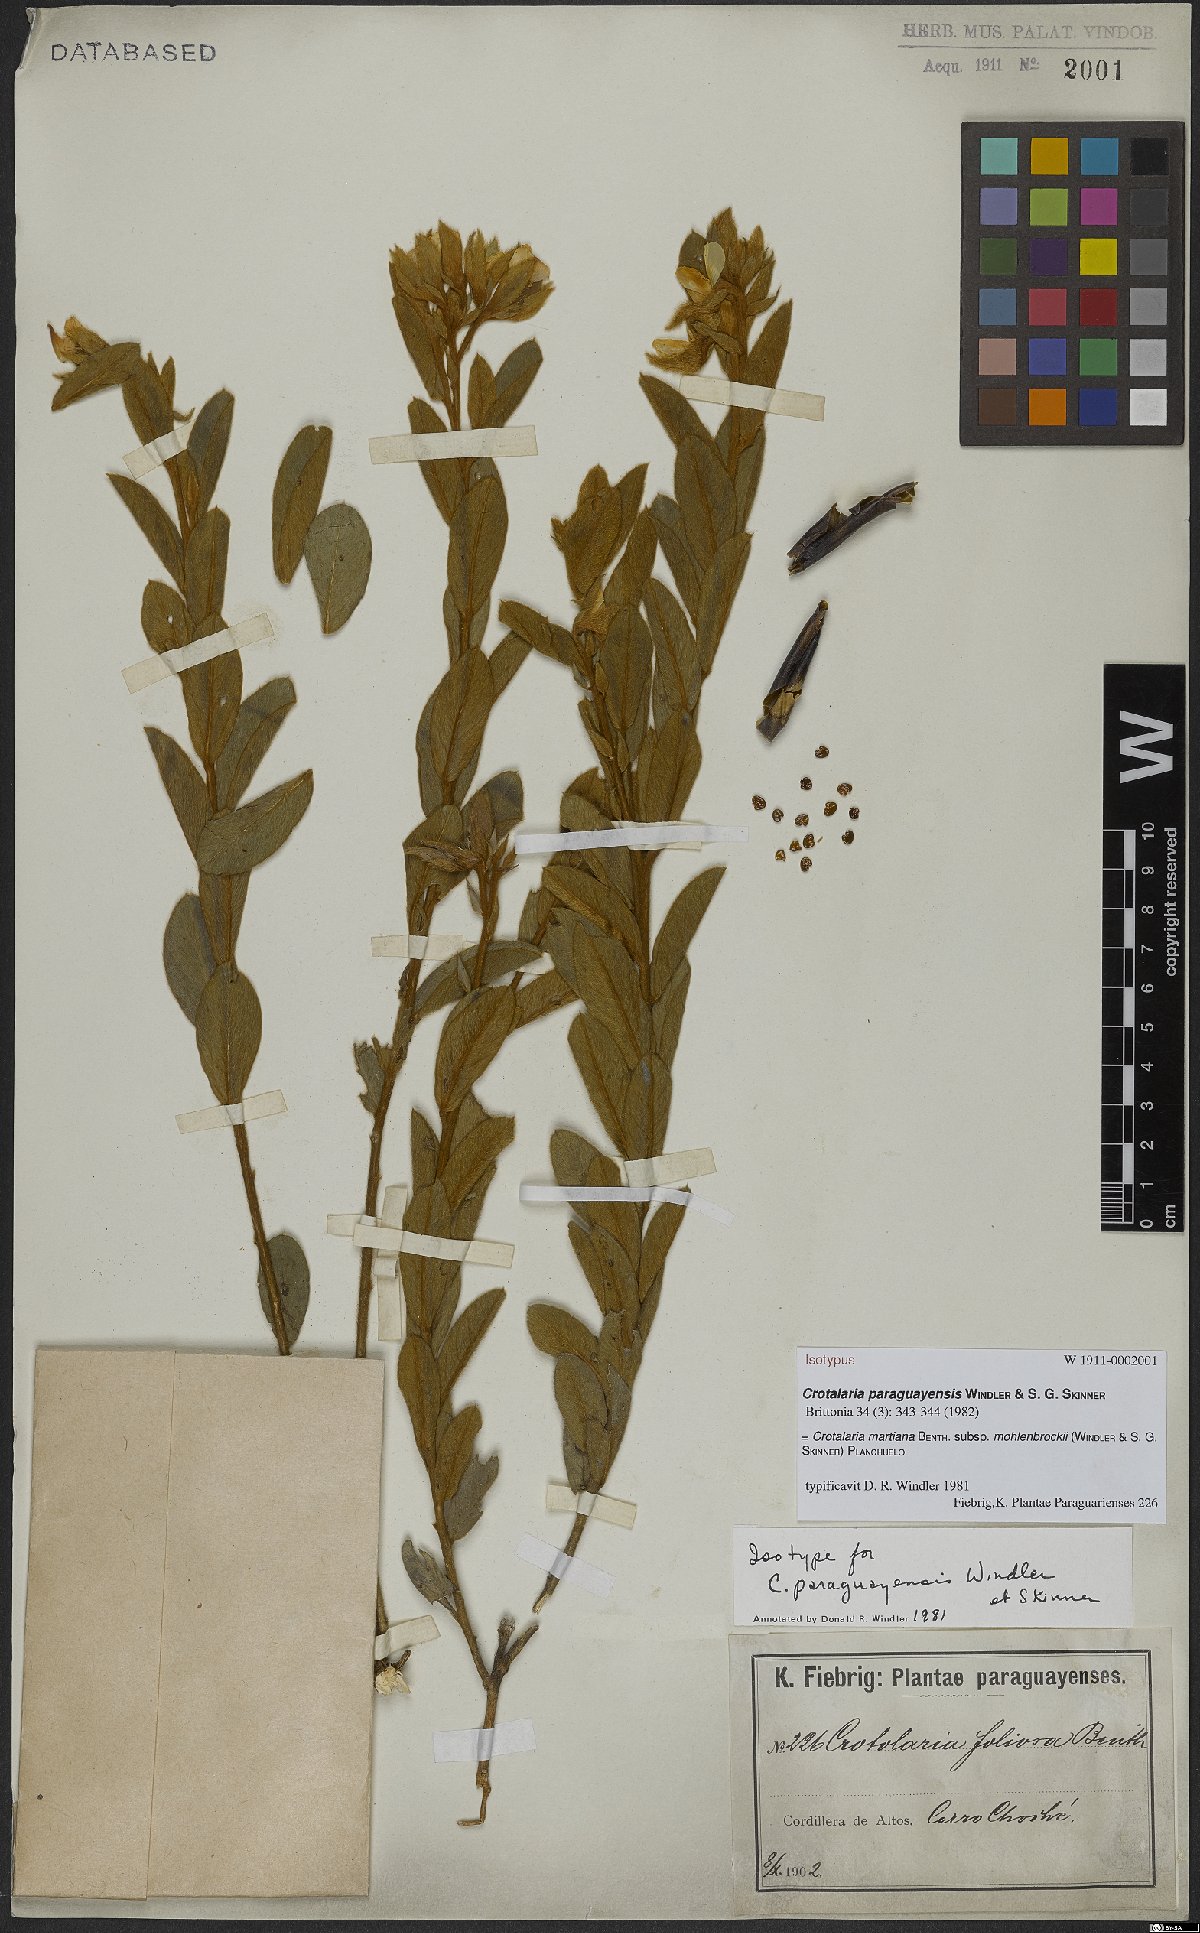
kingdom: Plantae
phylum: Tracheophyta
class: Magnoliopsida
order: Fabales
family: Fabaceae
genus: Crotalaria
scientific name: Crotalaria martiana
